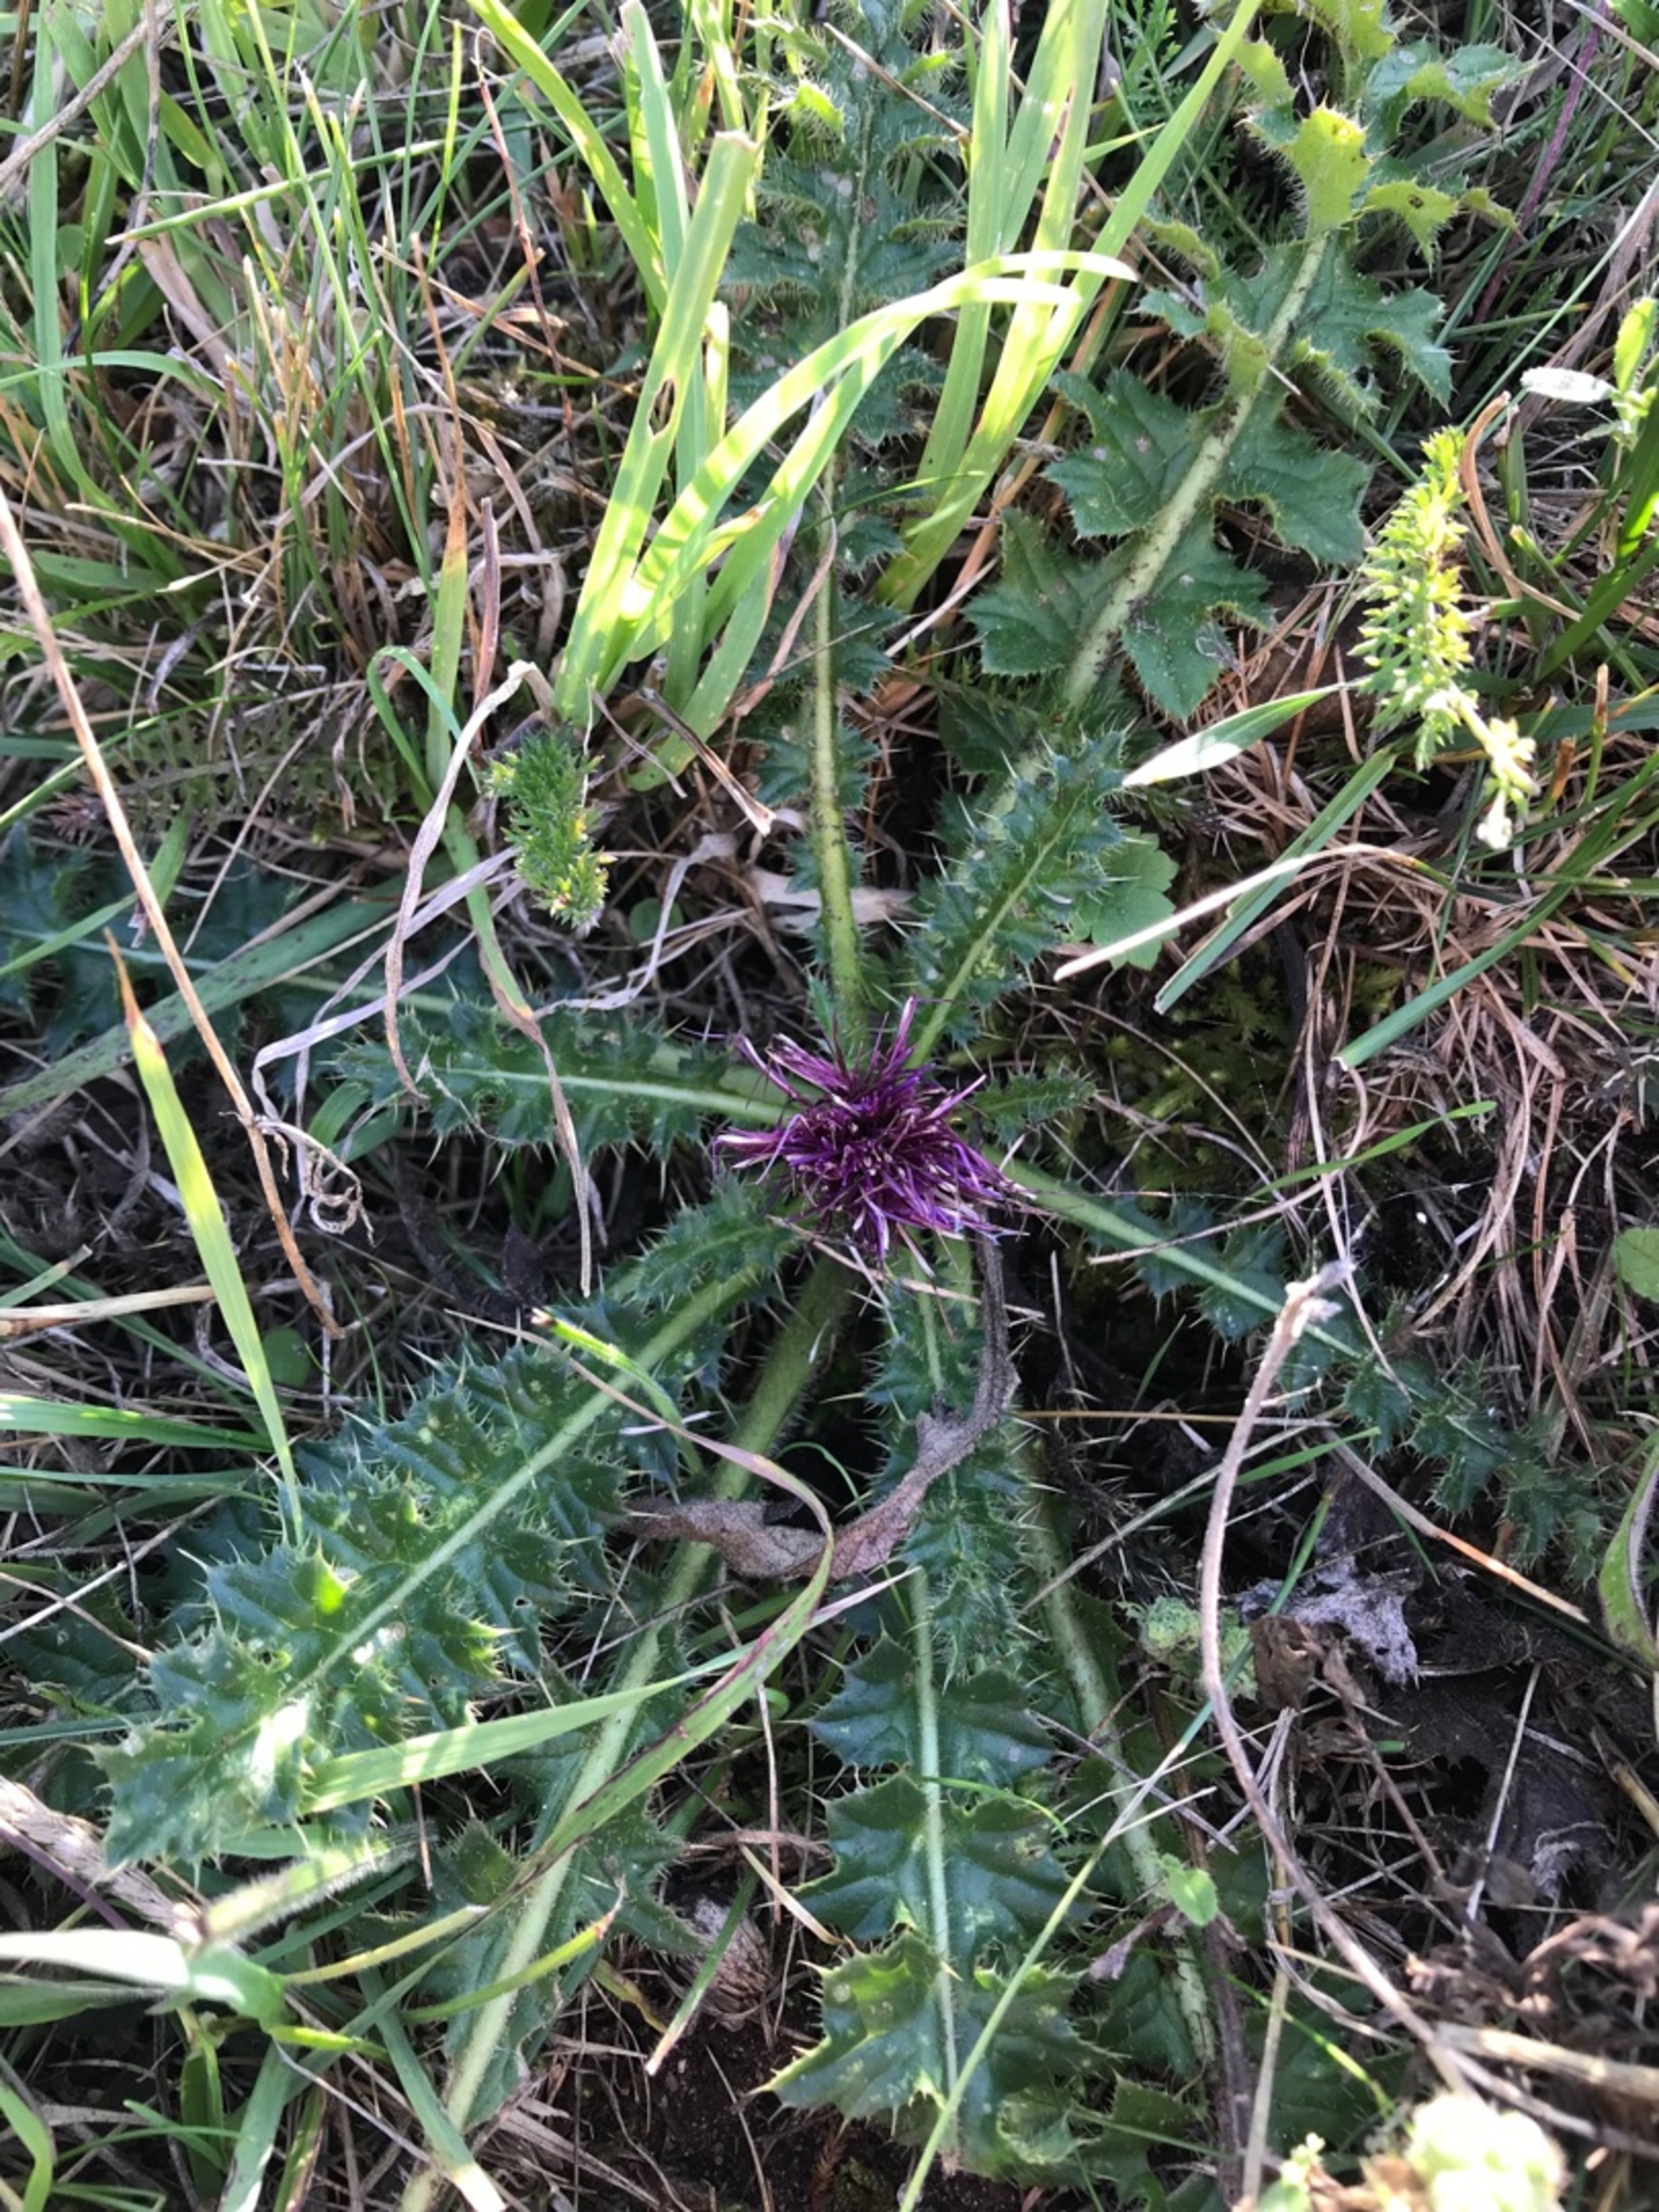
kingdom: Plantae
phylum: Tracheophyta
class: Magnoliopsida
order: Asterales
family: Asteraceae
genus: Cirsium
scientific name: Cirsium acaule
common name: Lav tidsel
